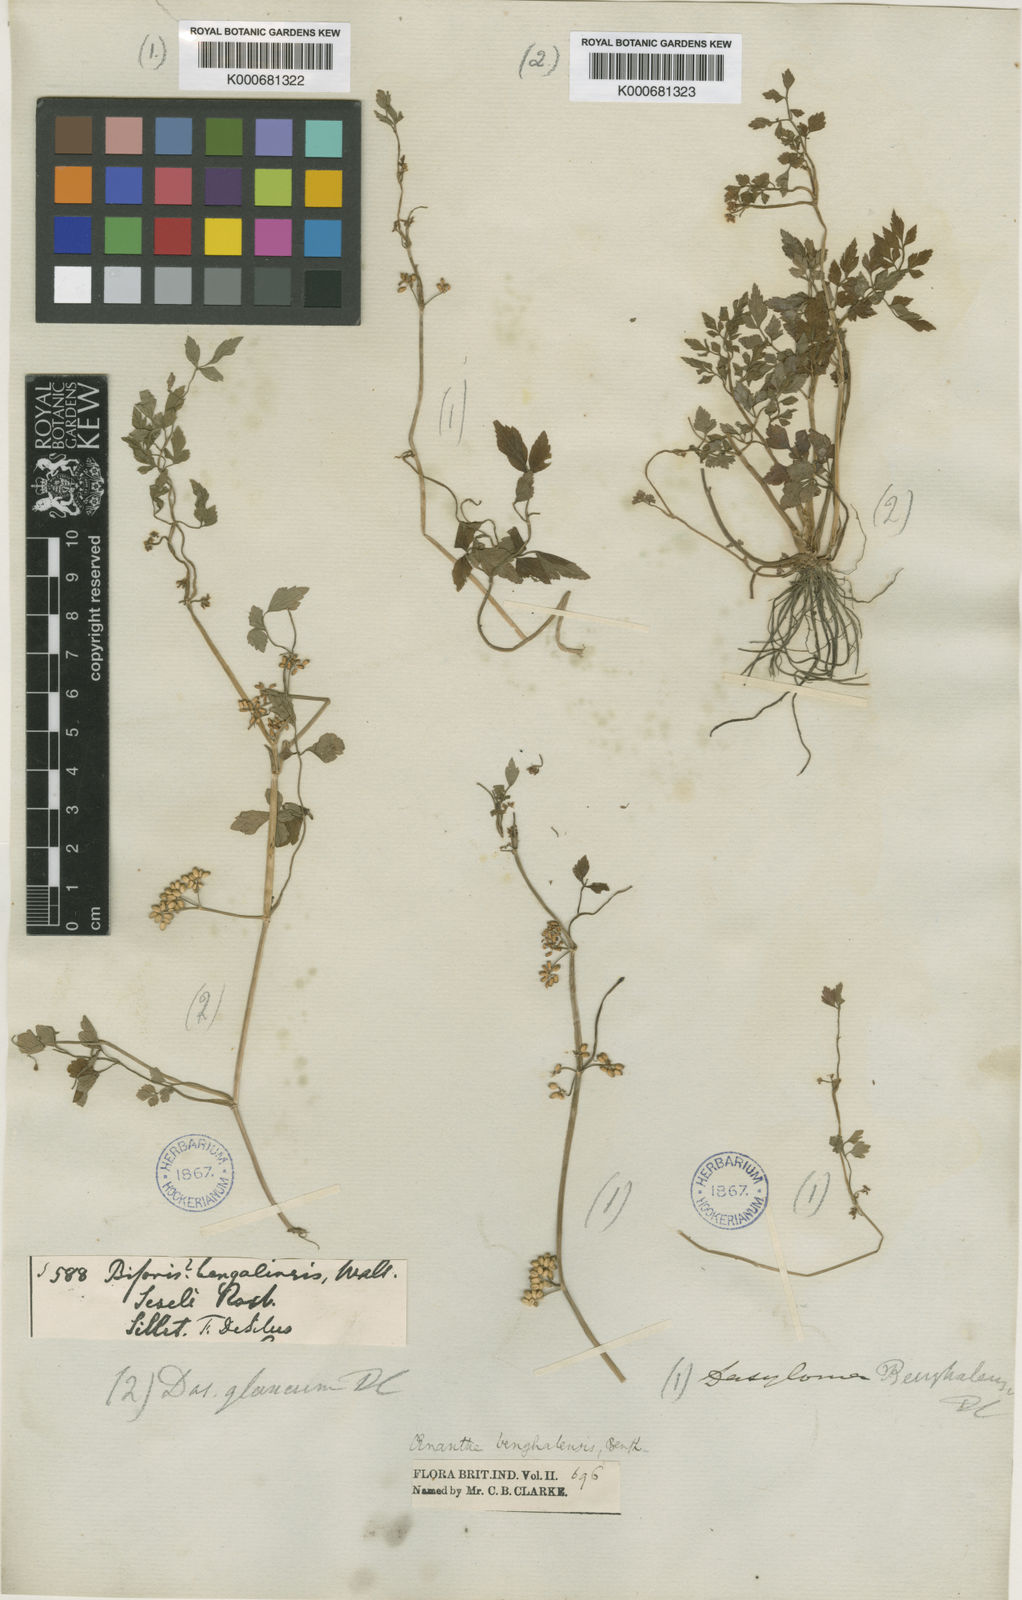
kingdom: Plantae
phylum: Tracheophyta
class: Magnoliopsida
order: Apiales
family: Apiaceae
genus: Oenanthe
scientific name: Oenanthe
